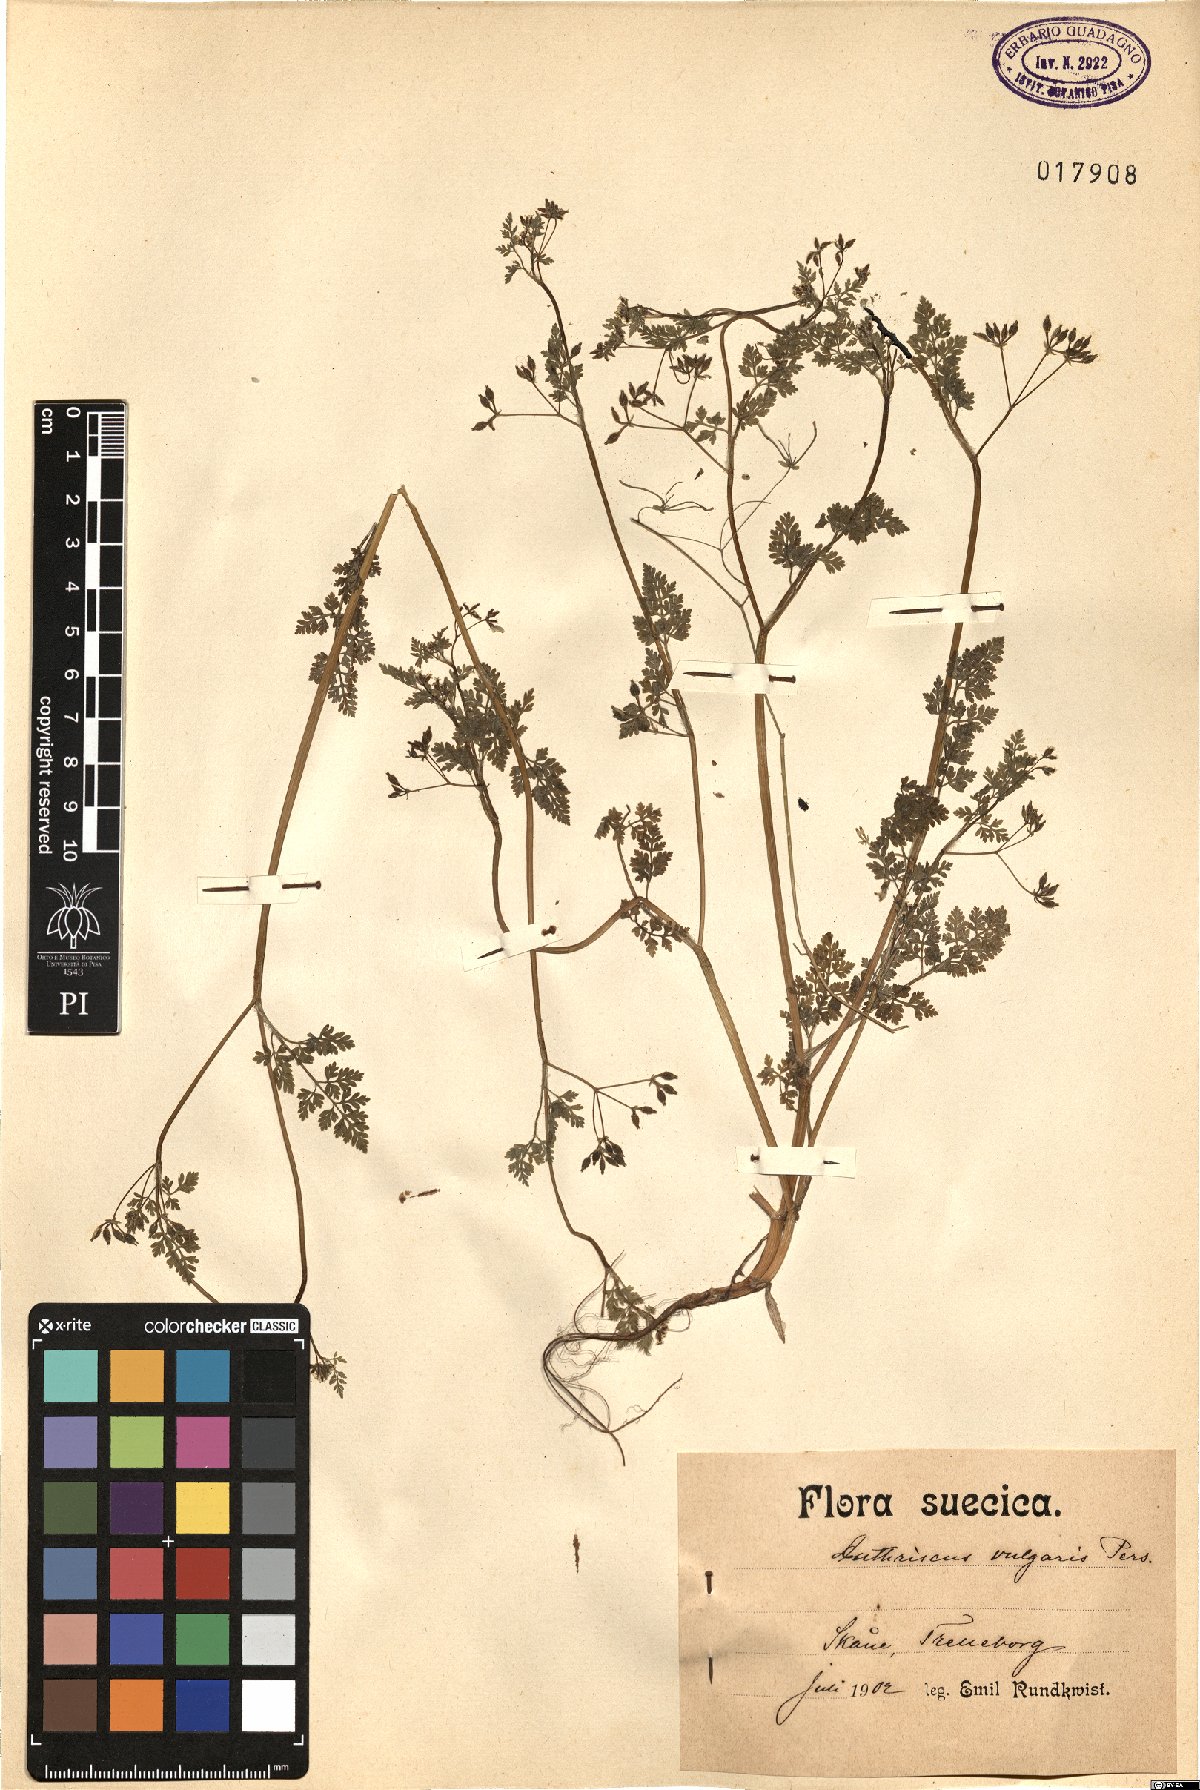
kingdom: Plantae
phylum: Tracheophyta
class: Magnoliopsida
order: Apiales
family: Apiaceae
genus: Anthriscus
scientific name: Anthriscus caucalis
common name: Bur chervil
